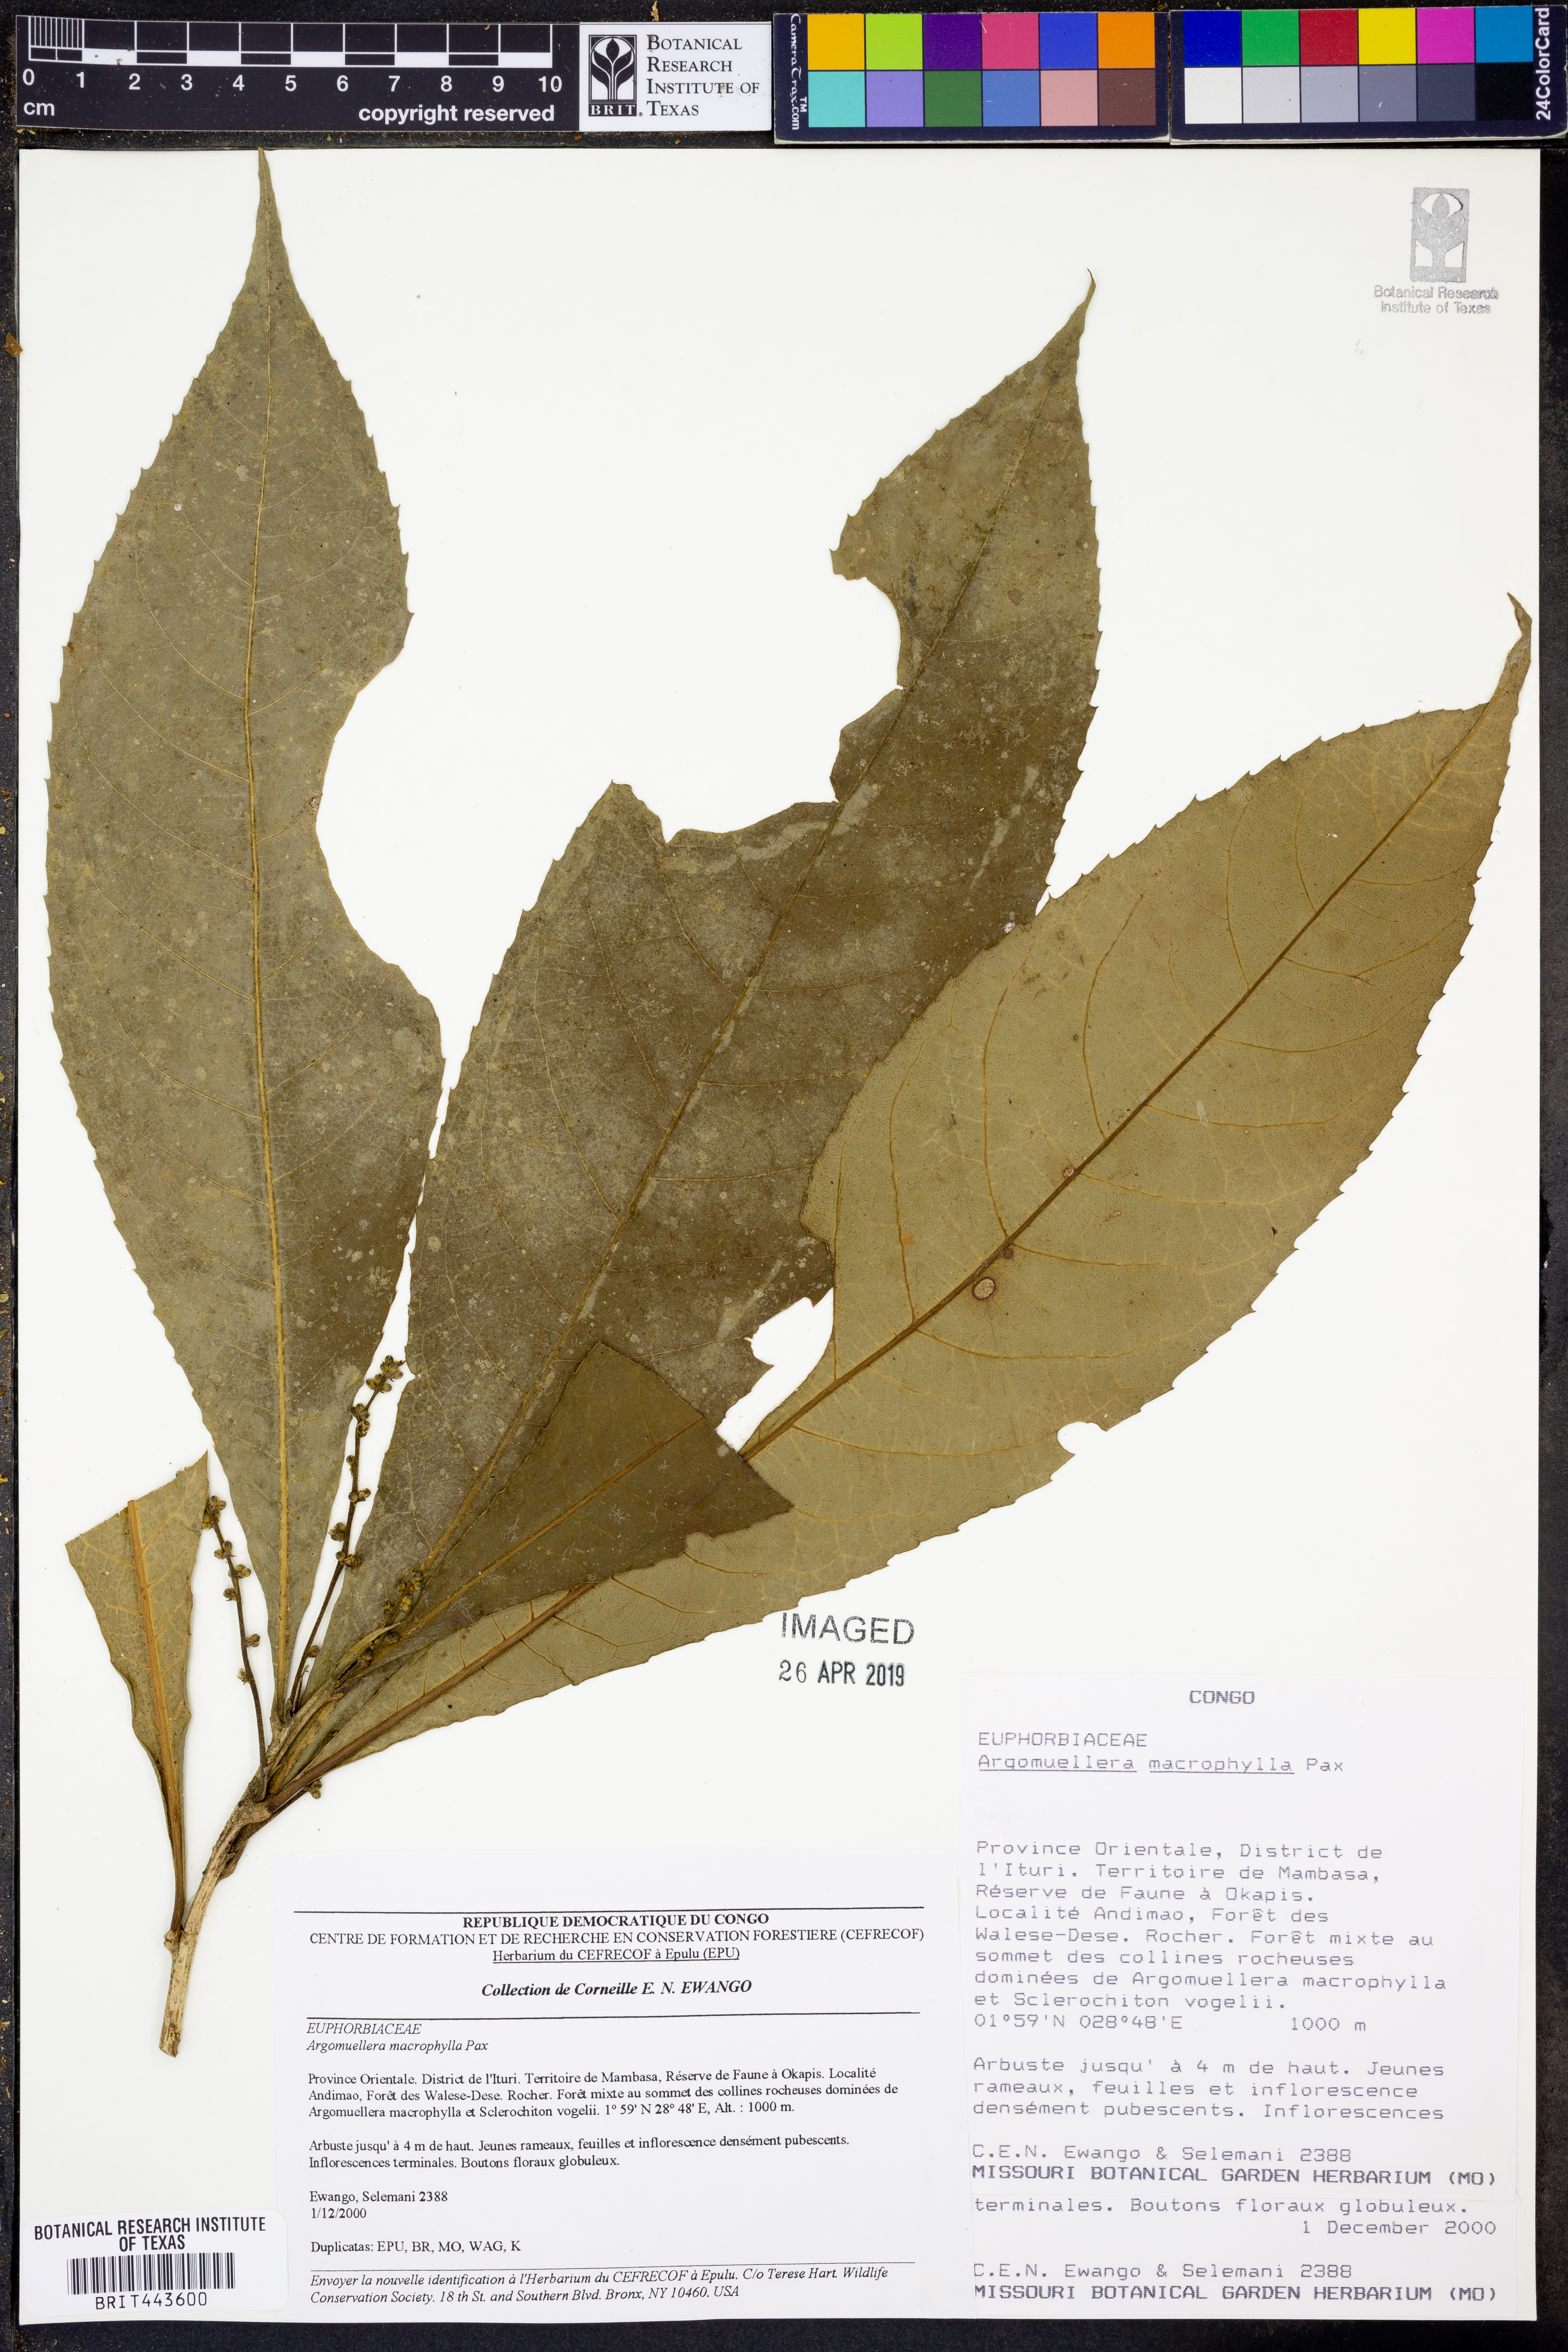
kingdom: Plantae
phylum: Tracheophyta
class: Magnoliopsida
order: Malpighiales
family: Euphorbiaceae
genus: Argomuellera
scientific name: Argomuellera macrophylla
